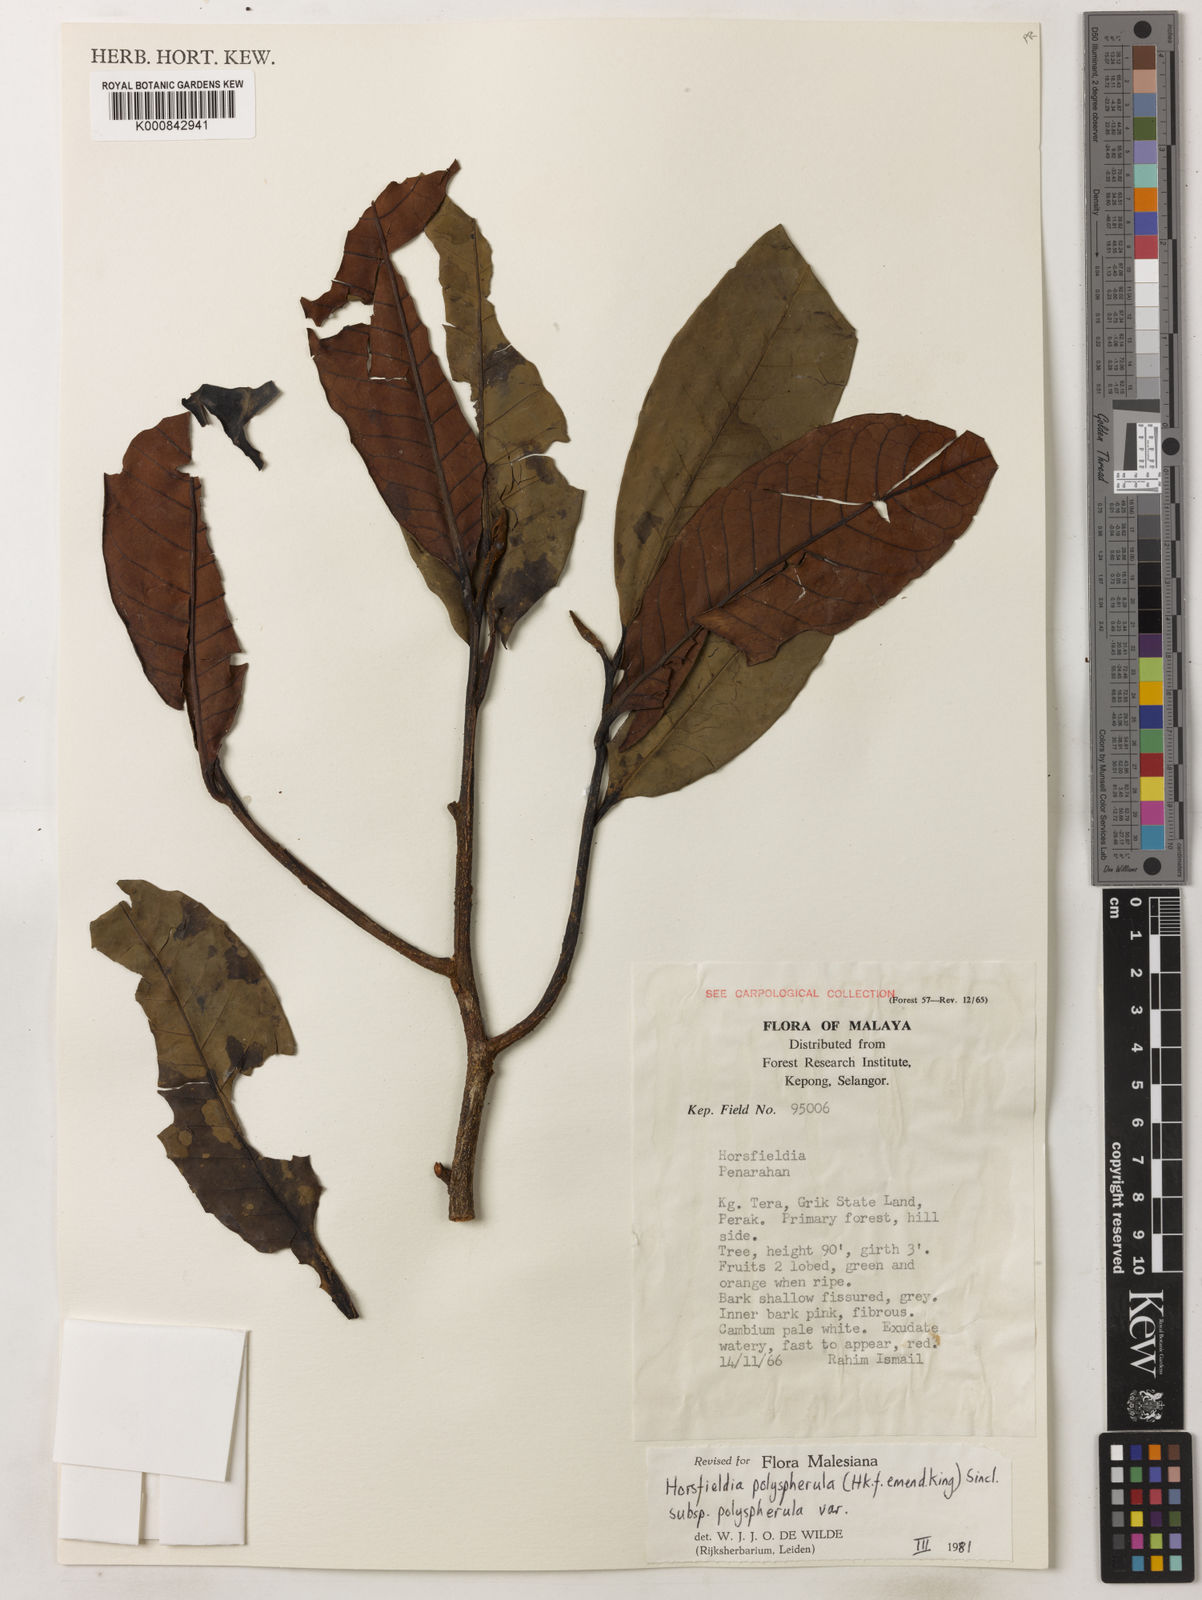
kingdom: Plantae
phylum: Tracheophyta
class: Magnoliopsida
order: Magnoliales
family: Myristicaceae
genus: Horsfieldia
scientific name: Horsfieldia
